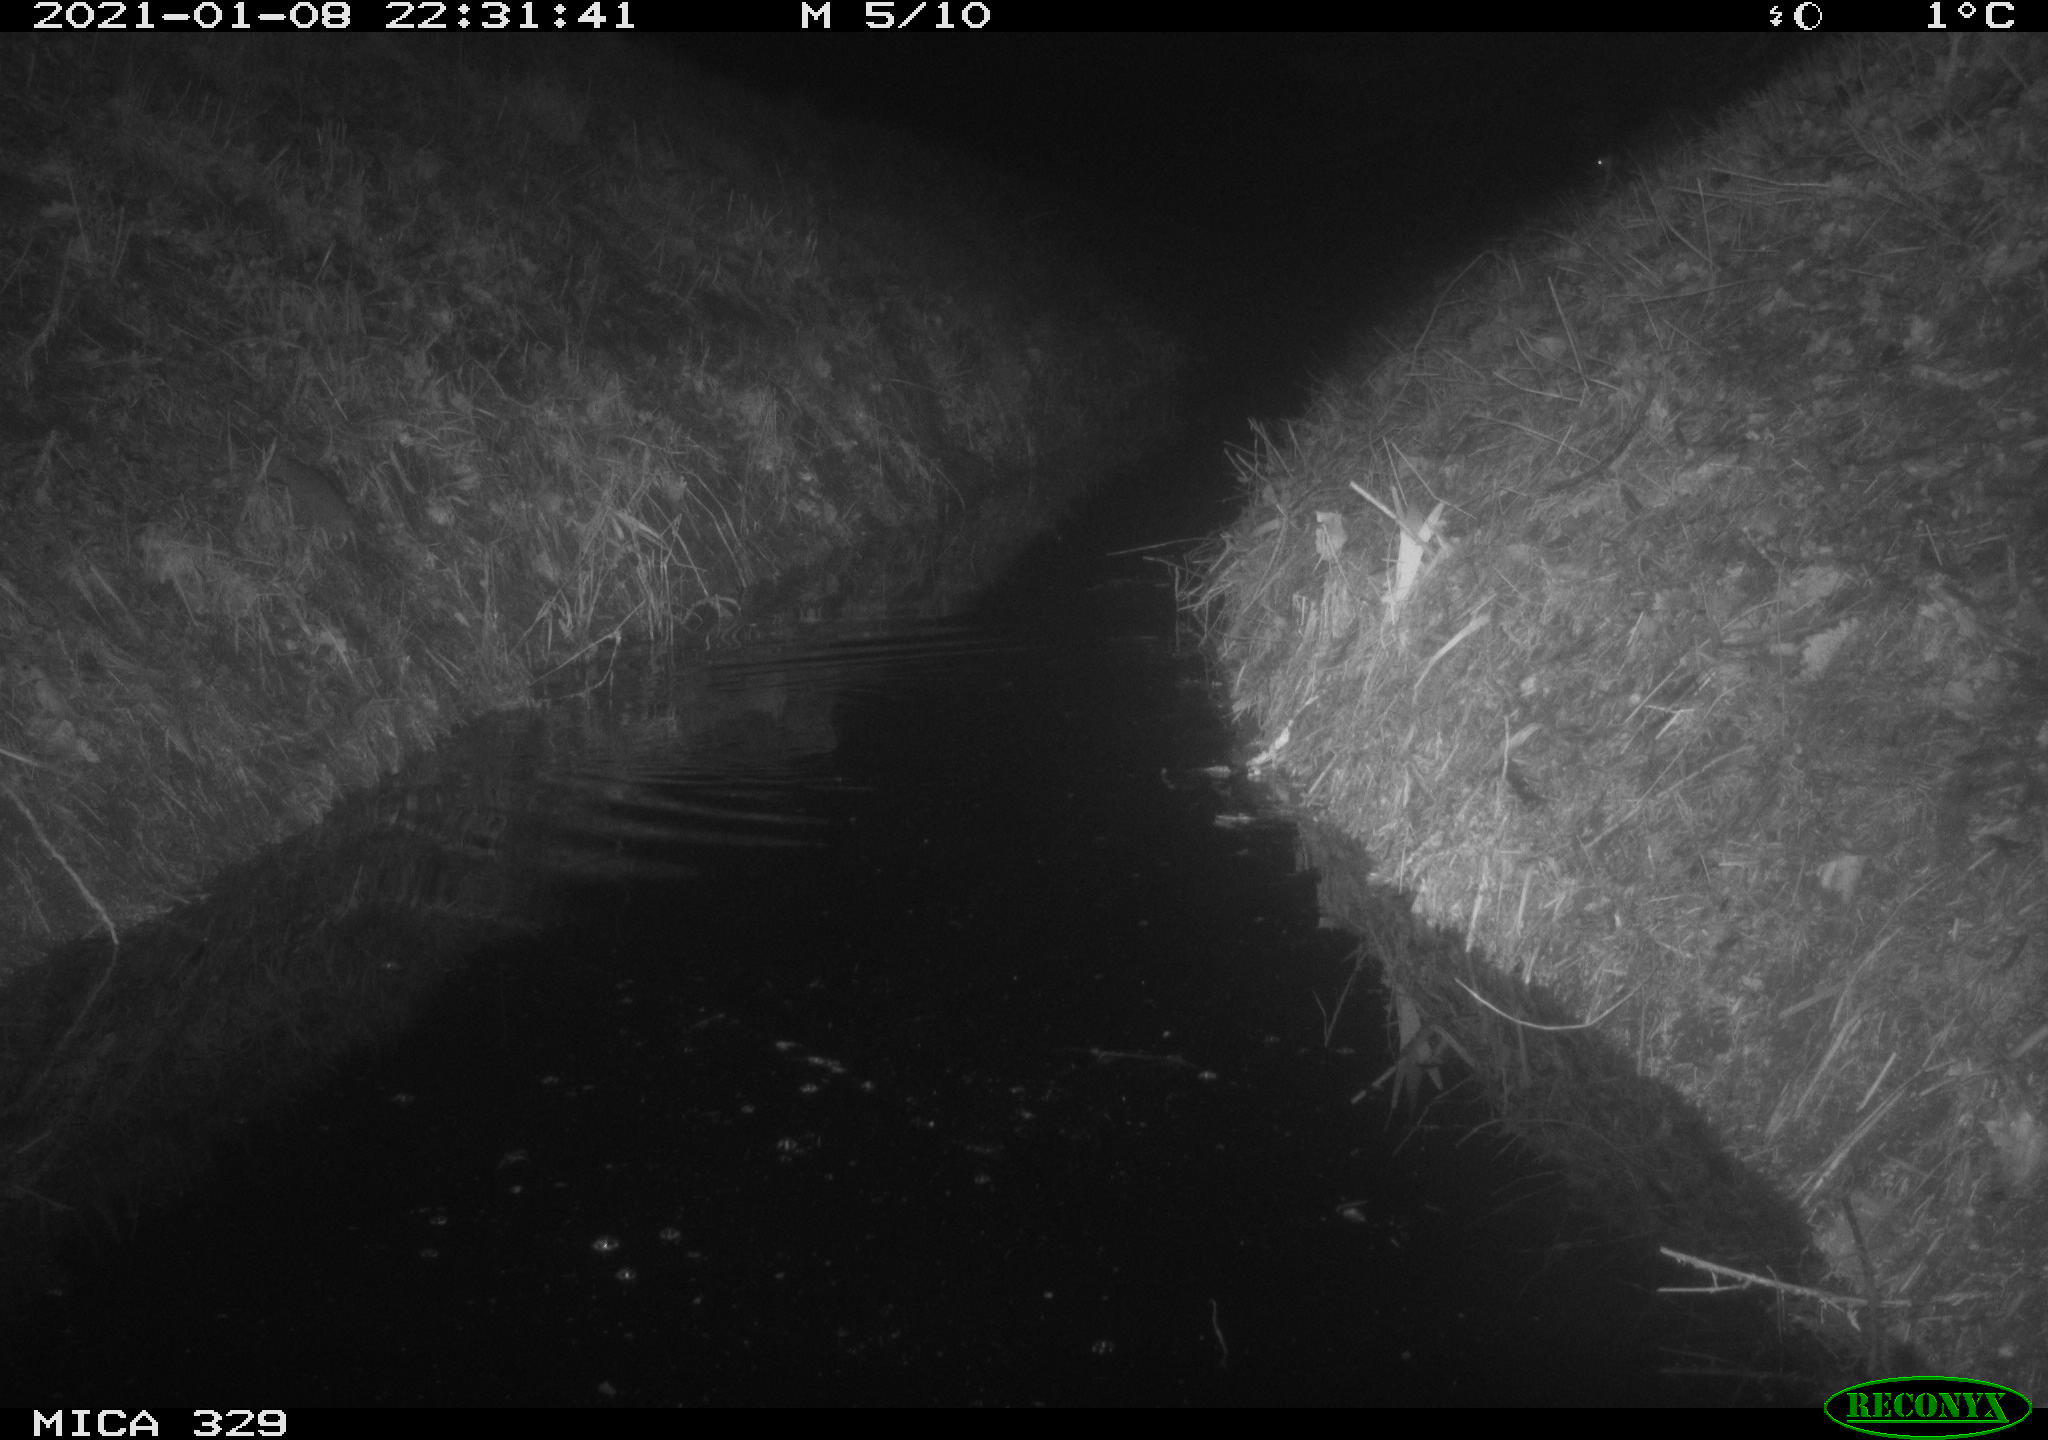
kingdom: Animalia
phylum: Chordata
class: Mammalia
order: Rodentia
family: Muridae
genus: Rattus
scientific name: Rattus norvegicus
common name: Brown rat
